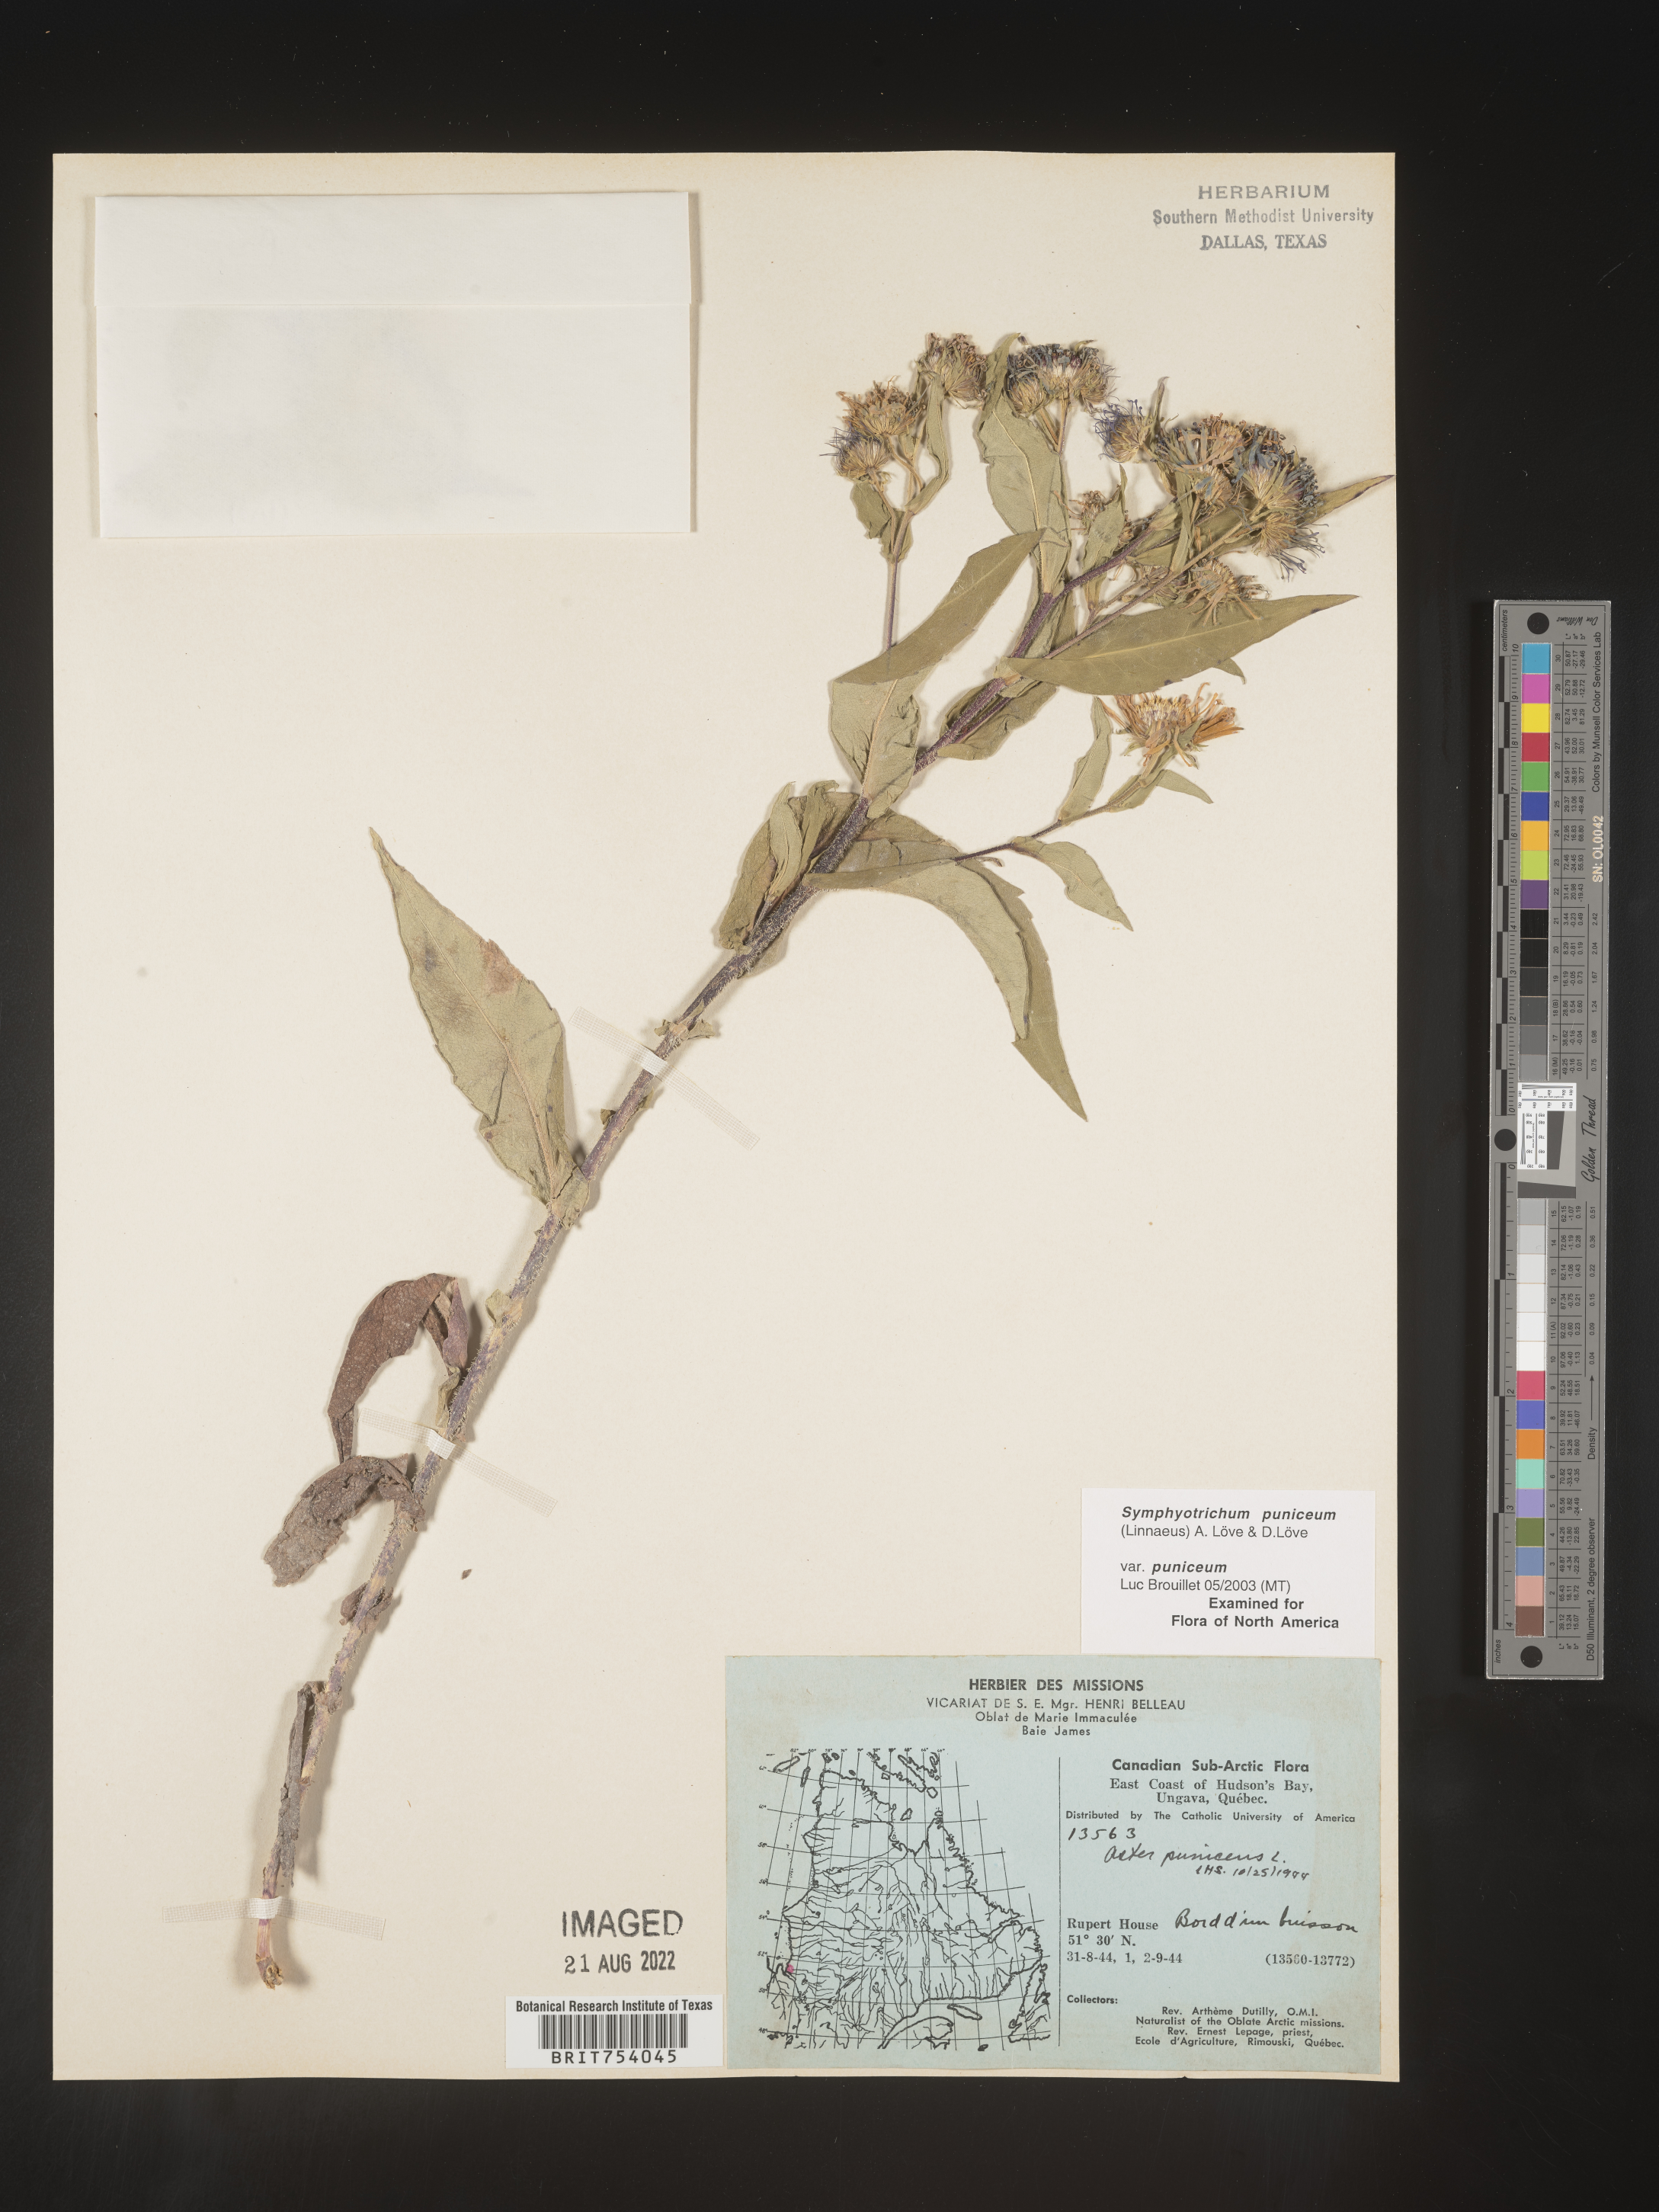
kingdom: Plantae
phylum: Tracheophyta
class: Magnoliopsida
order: Asterales
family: Asteraceae
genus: Symphyotrichum
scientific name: Symphyotrichum puniceum
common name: Bog aster
